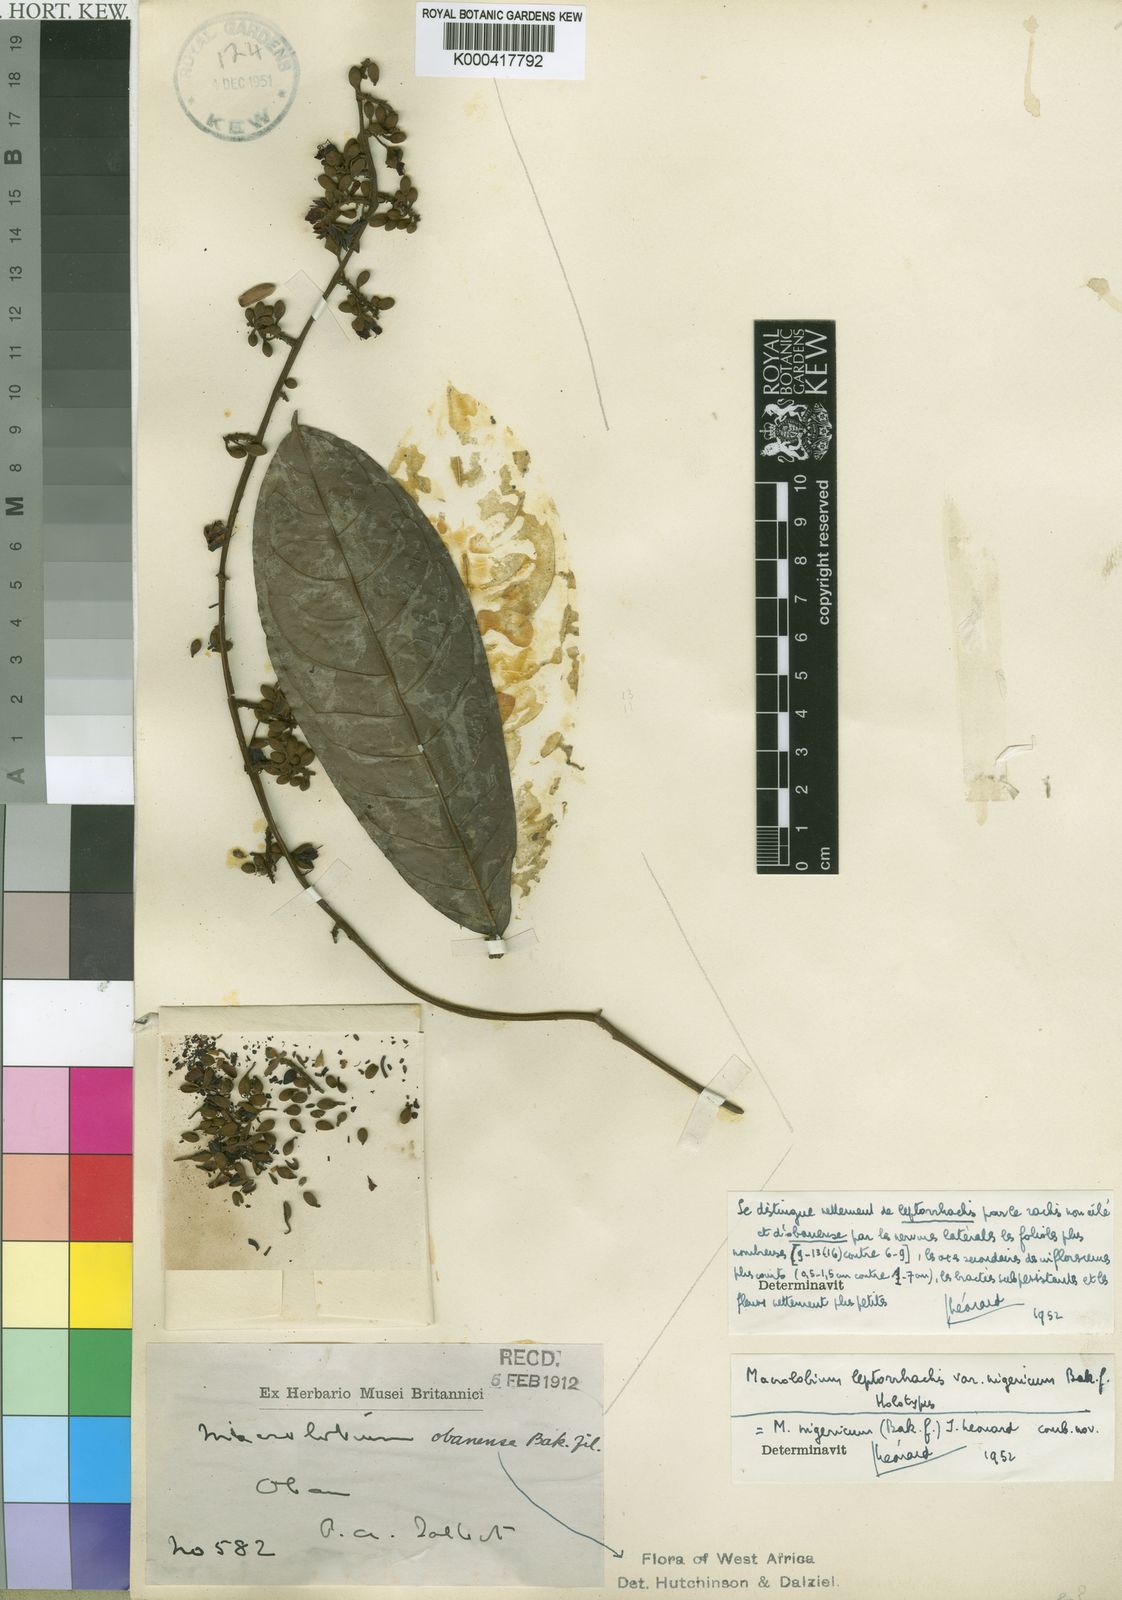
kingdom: Plantae
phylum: Tracheophyta
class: Magnoliopsida
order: Fabales
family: Fabaceae
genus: Anthonotha
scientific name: Anthonotha
